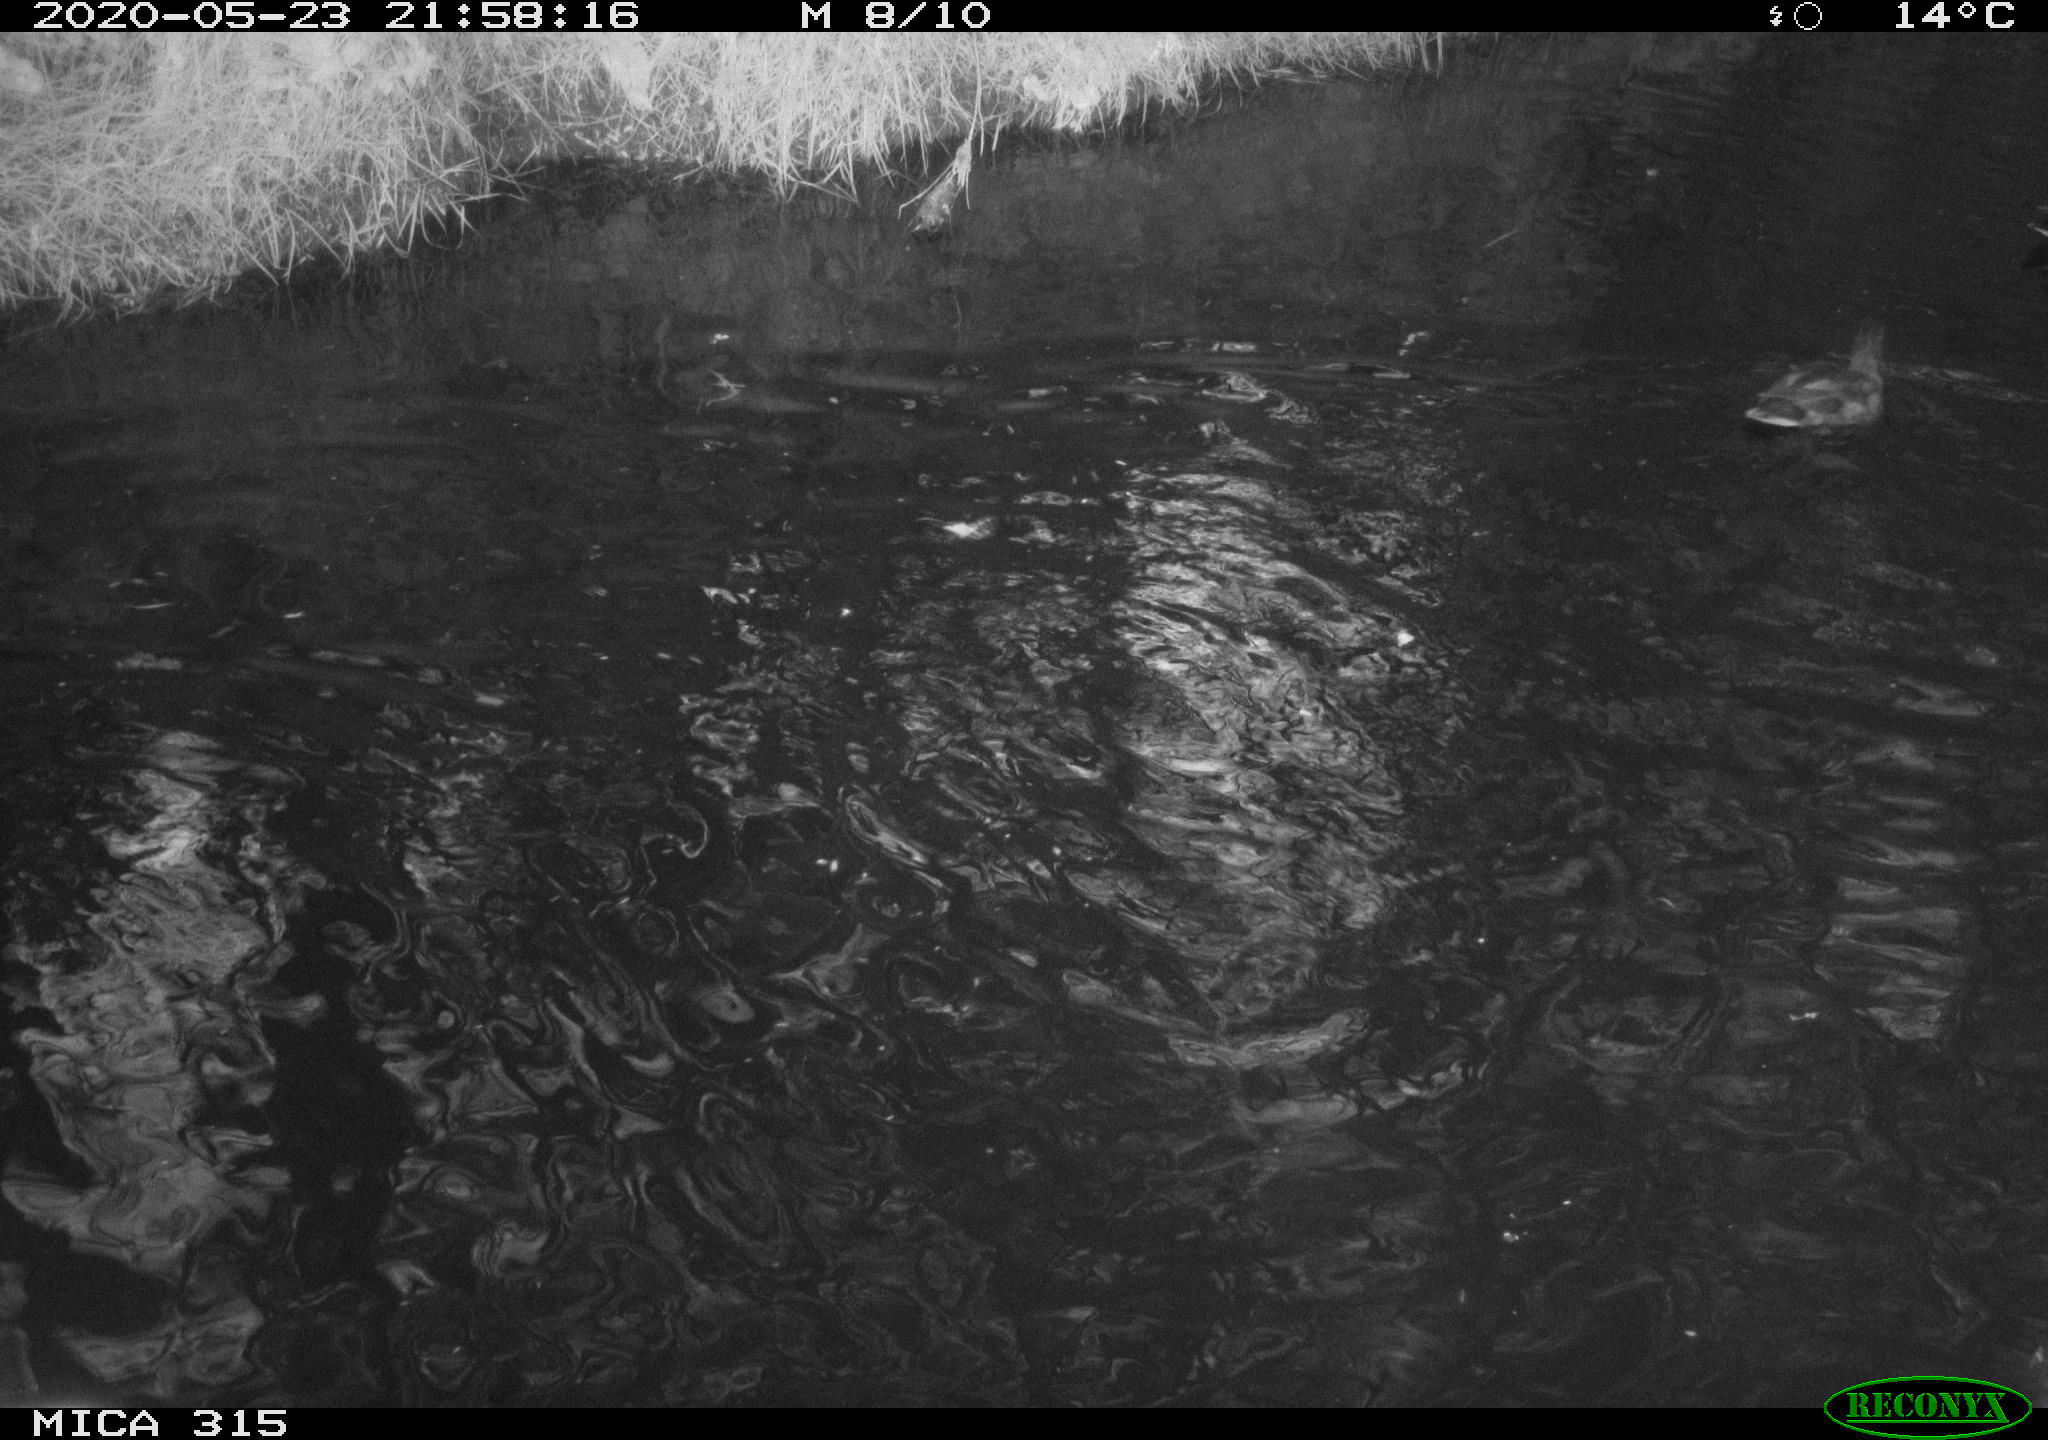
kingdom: Animalia
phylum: Chordata
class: Aves
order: Anseriformes
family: Anatidae
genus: Anas
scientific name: Anas platyrhynchos
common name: Mallard
